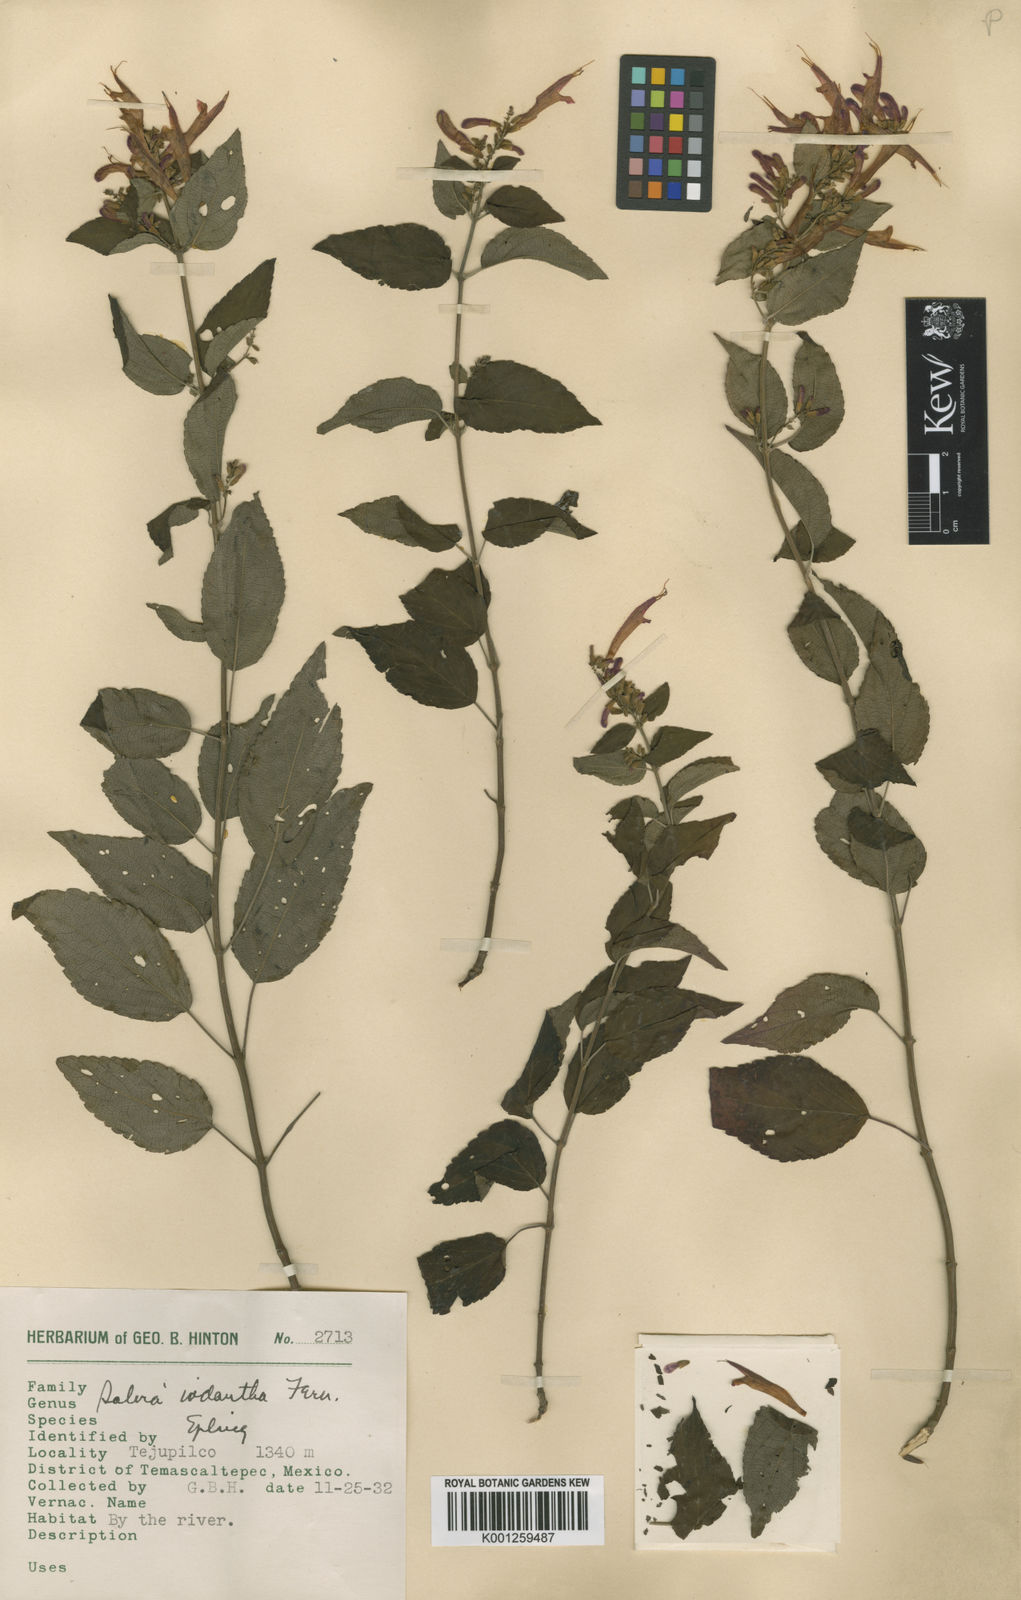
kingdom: Plantae
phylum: Tracheophyta
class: Magnoliopsida
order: Lamiales
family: Lamiaceae
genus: Salvia
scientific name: Salvia iodantha
